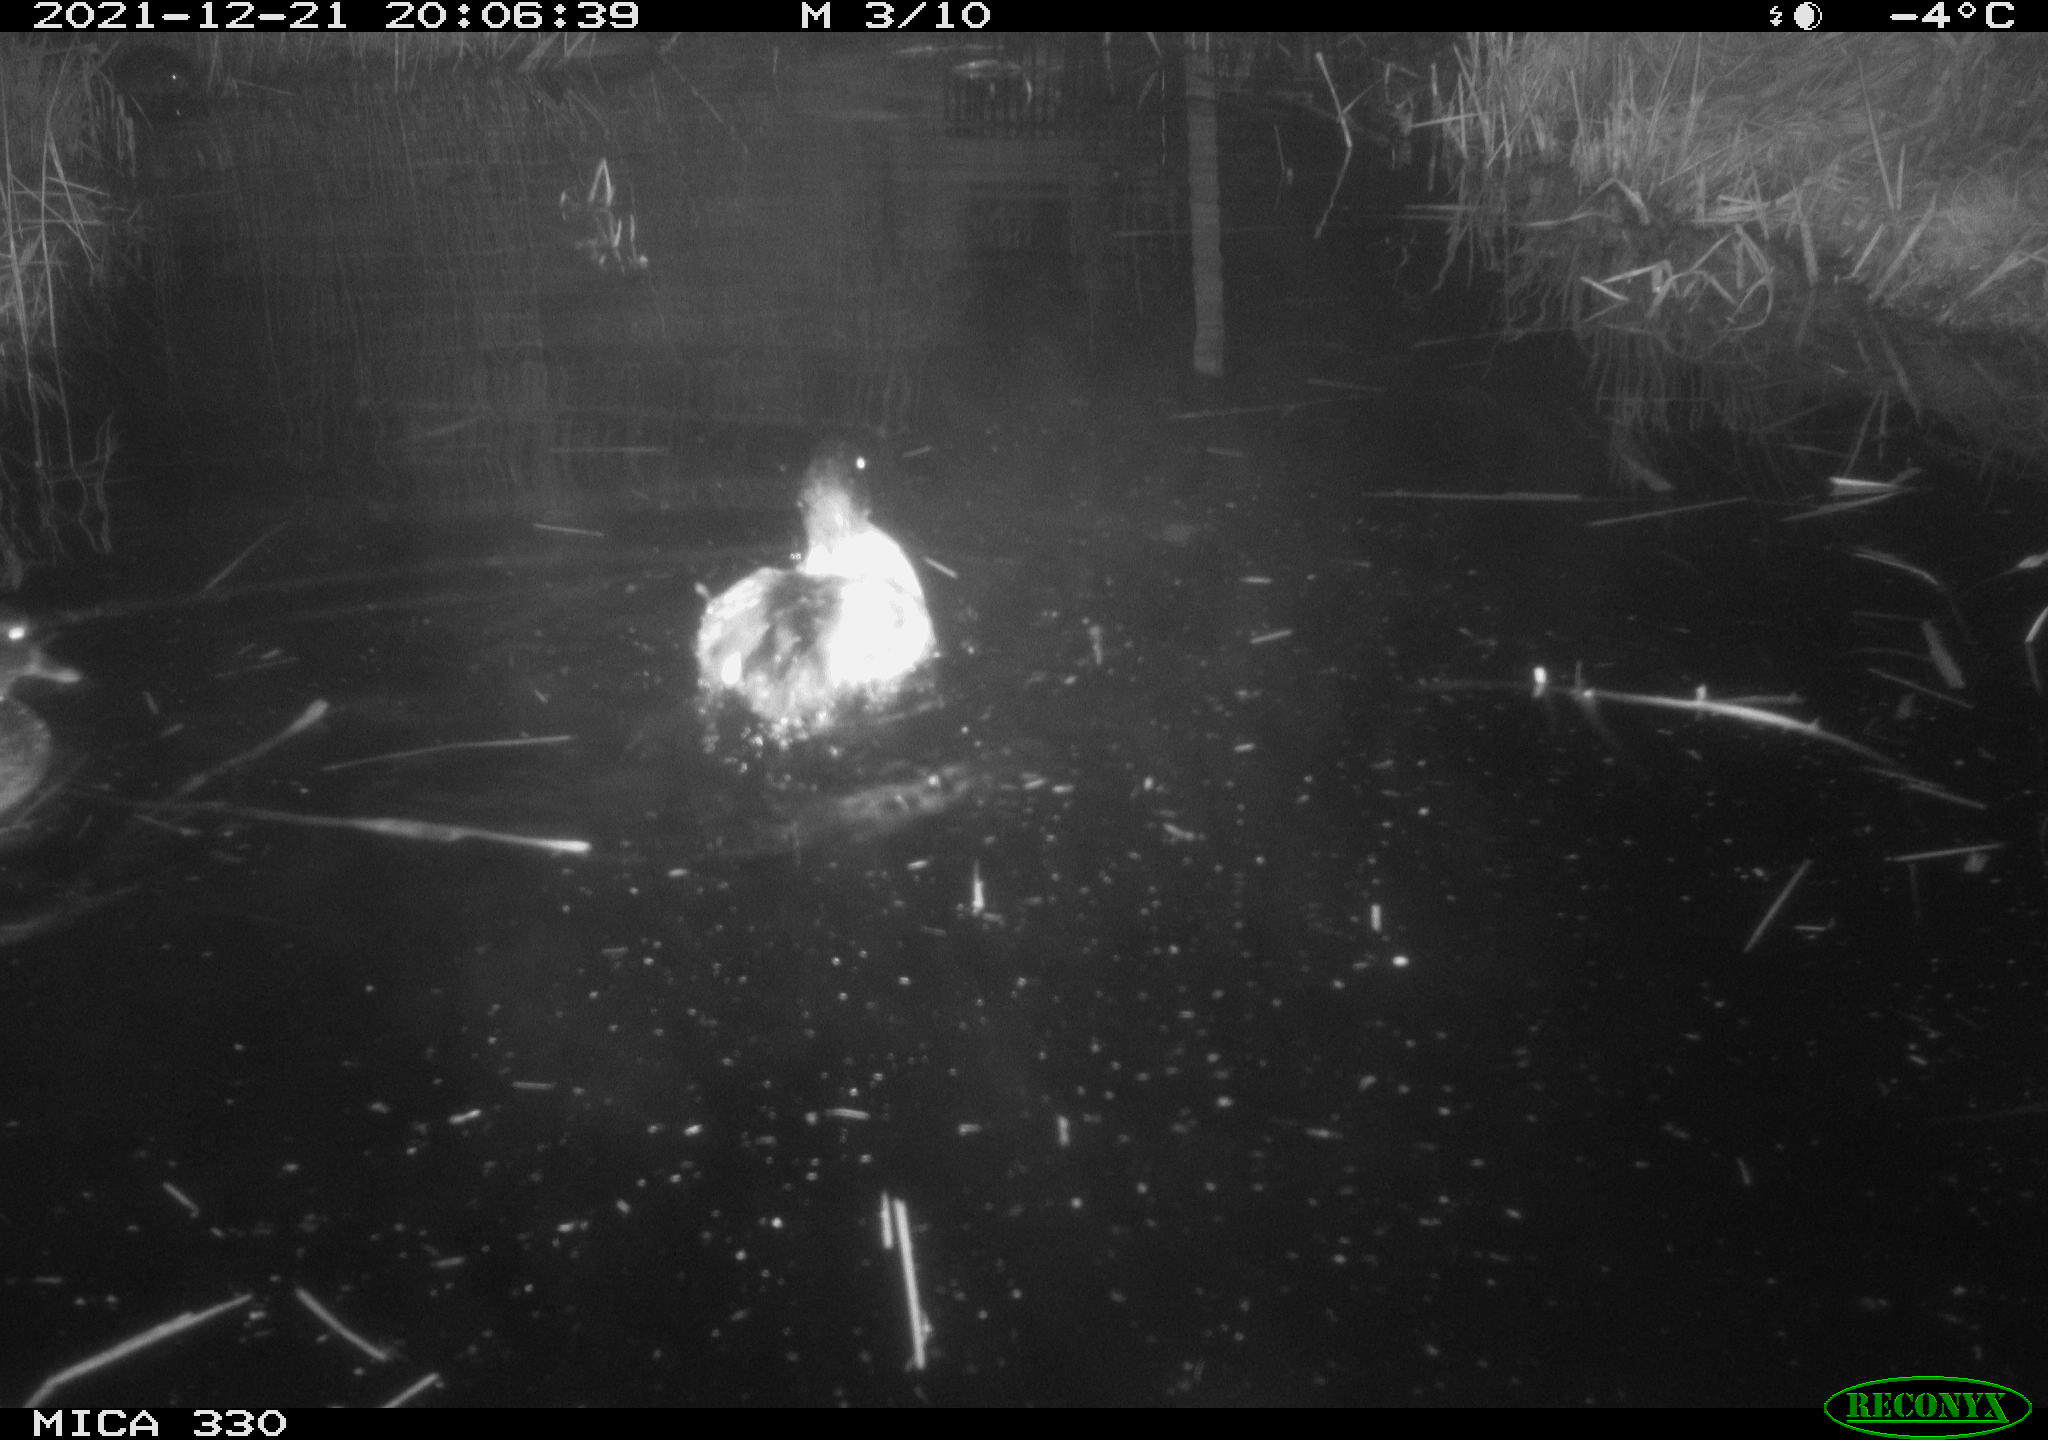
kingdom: Animalia
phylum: Chordata
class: Aves
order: Anseriformes
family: Anatidae
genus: Anas
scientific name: Anas platyrhynchos
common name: Mallard
